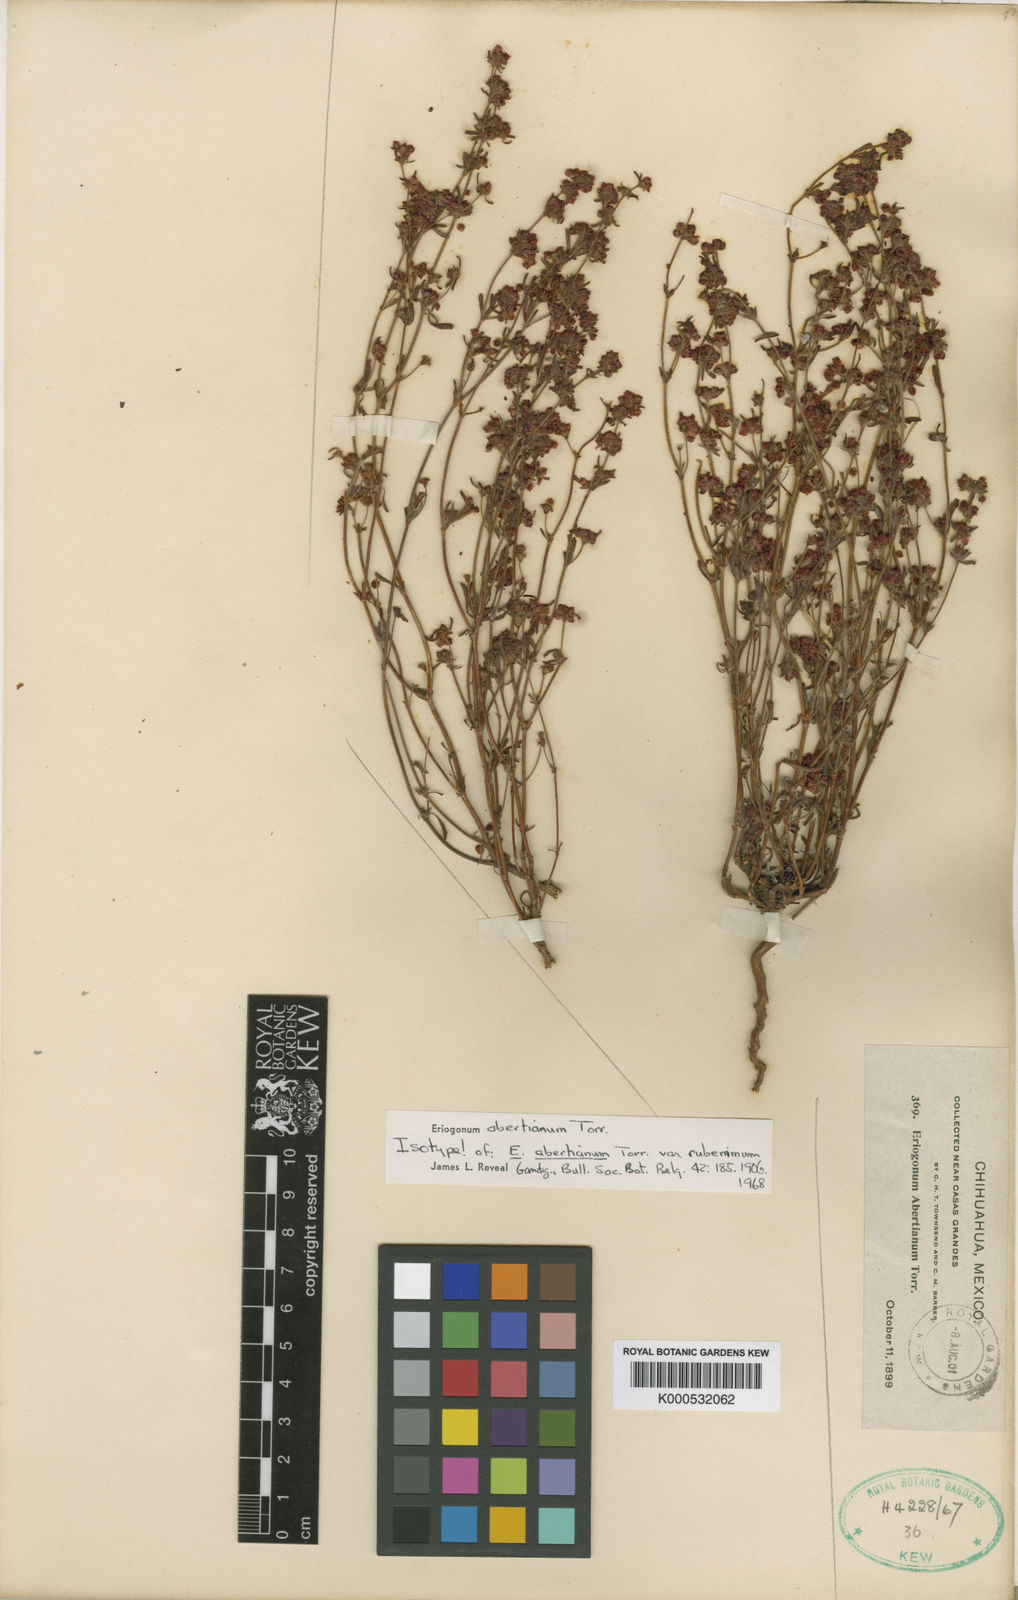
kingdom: Plantae
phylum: Tracheophyta
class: Magnoliopsida
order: Caryophyllales
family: Polygonaceae
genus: Eriogonum
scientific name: Eriogonum abertianum
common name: Abert's wild buckwheat
